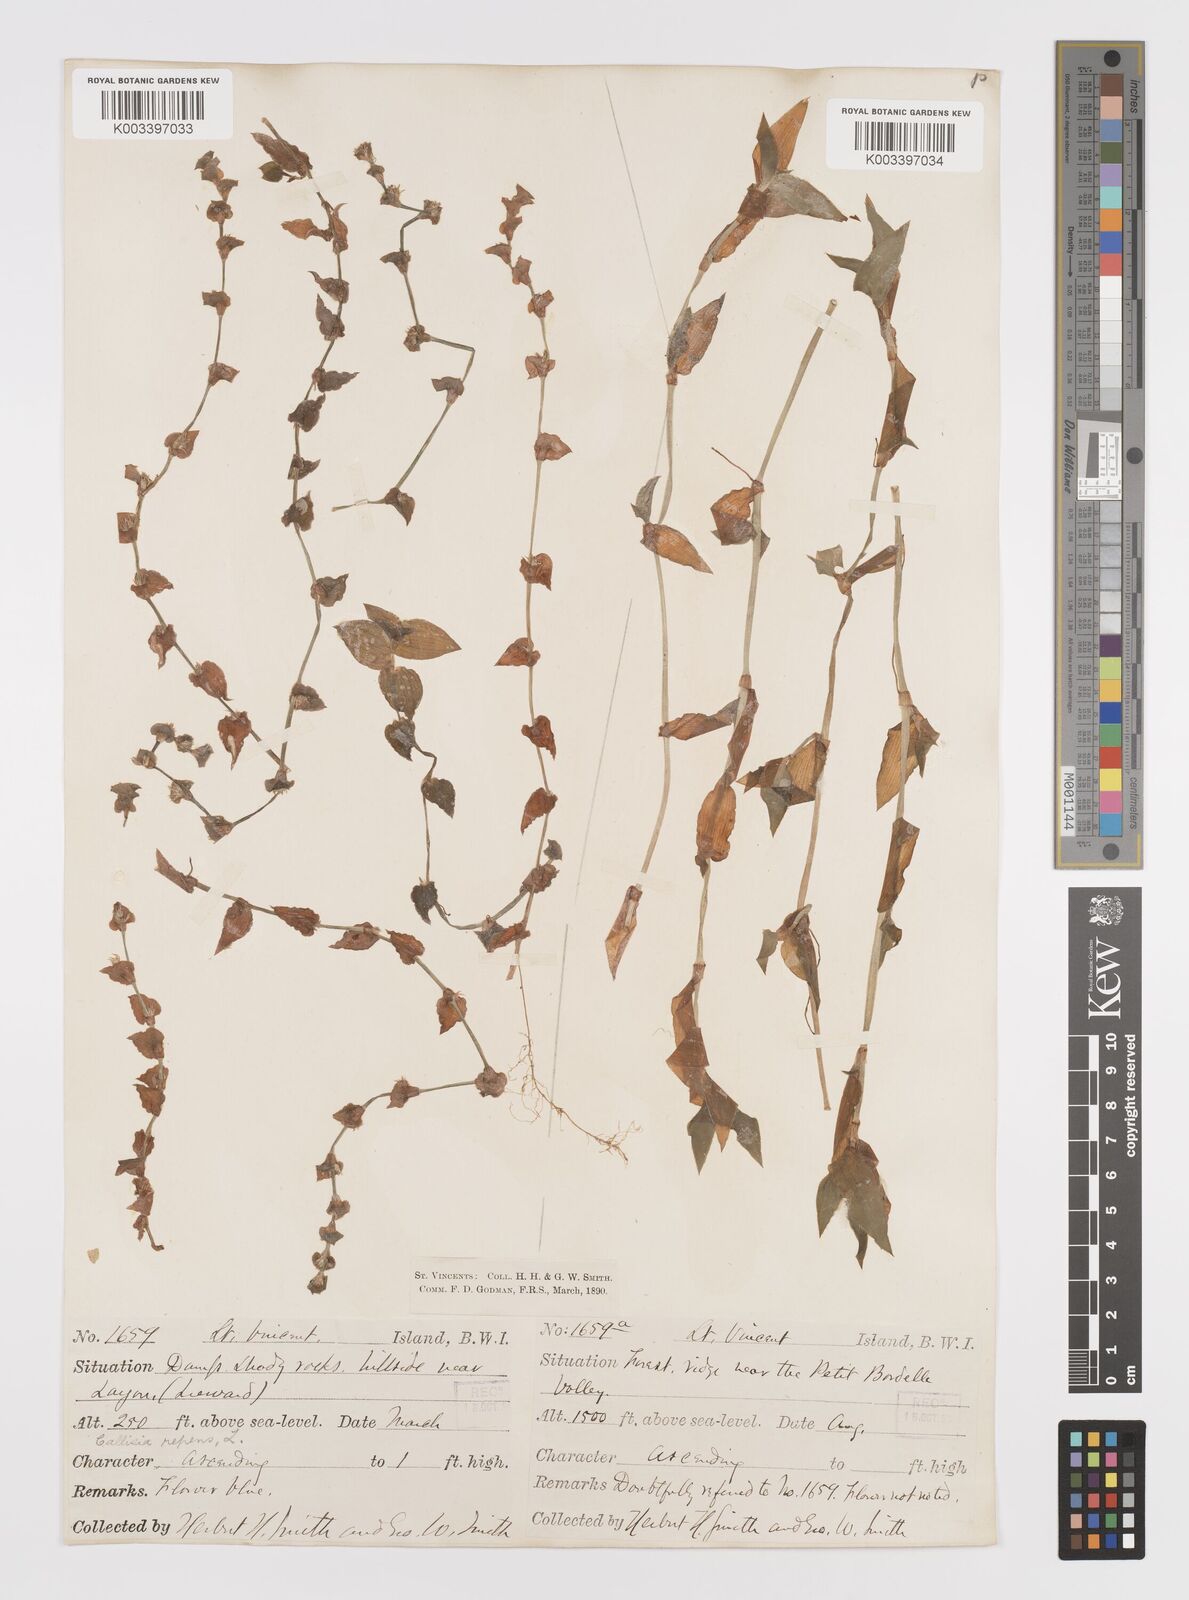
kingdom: Plantae
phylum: Tracheophyta
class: Liliopsida
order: Commelinales
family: Commelinaceae
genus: Callisia
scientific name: Callisia repens
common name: Creeping inchplant
